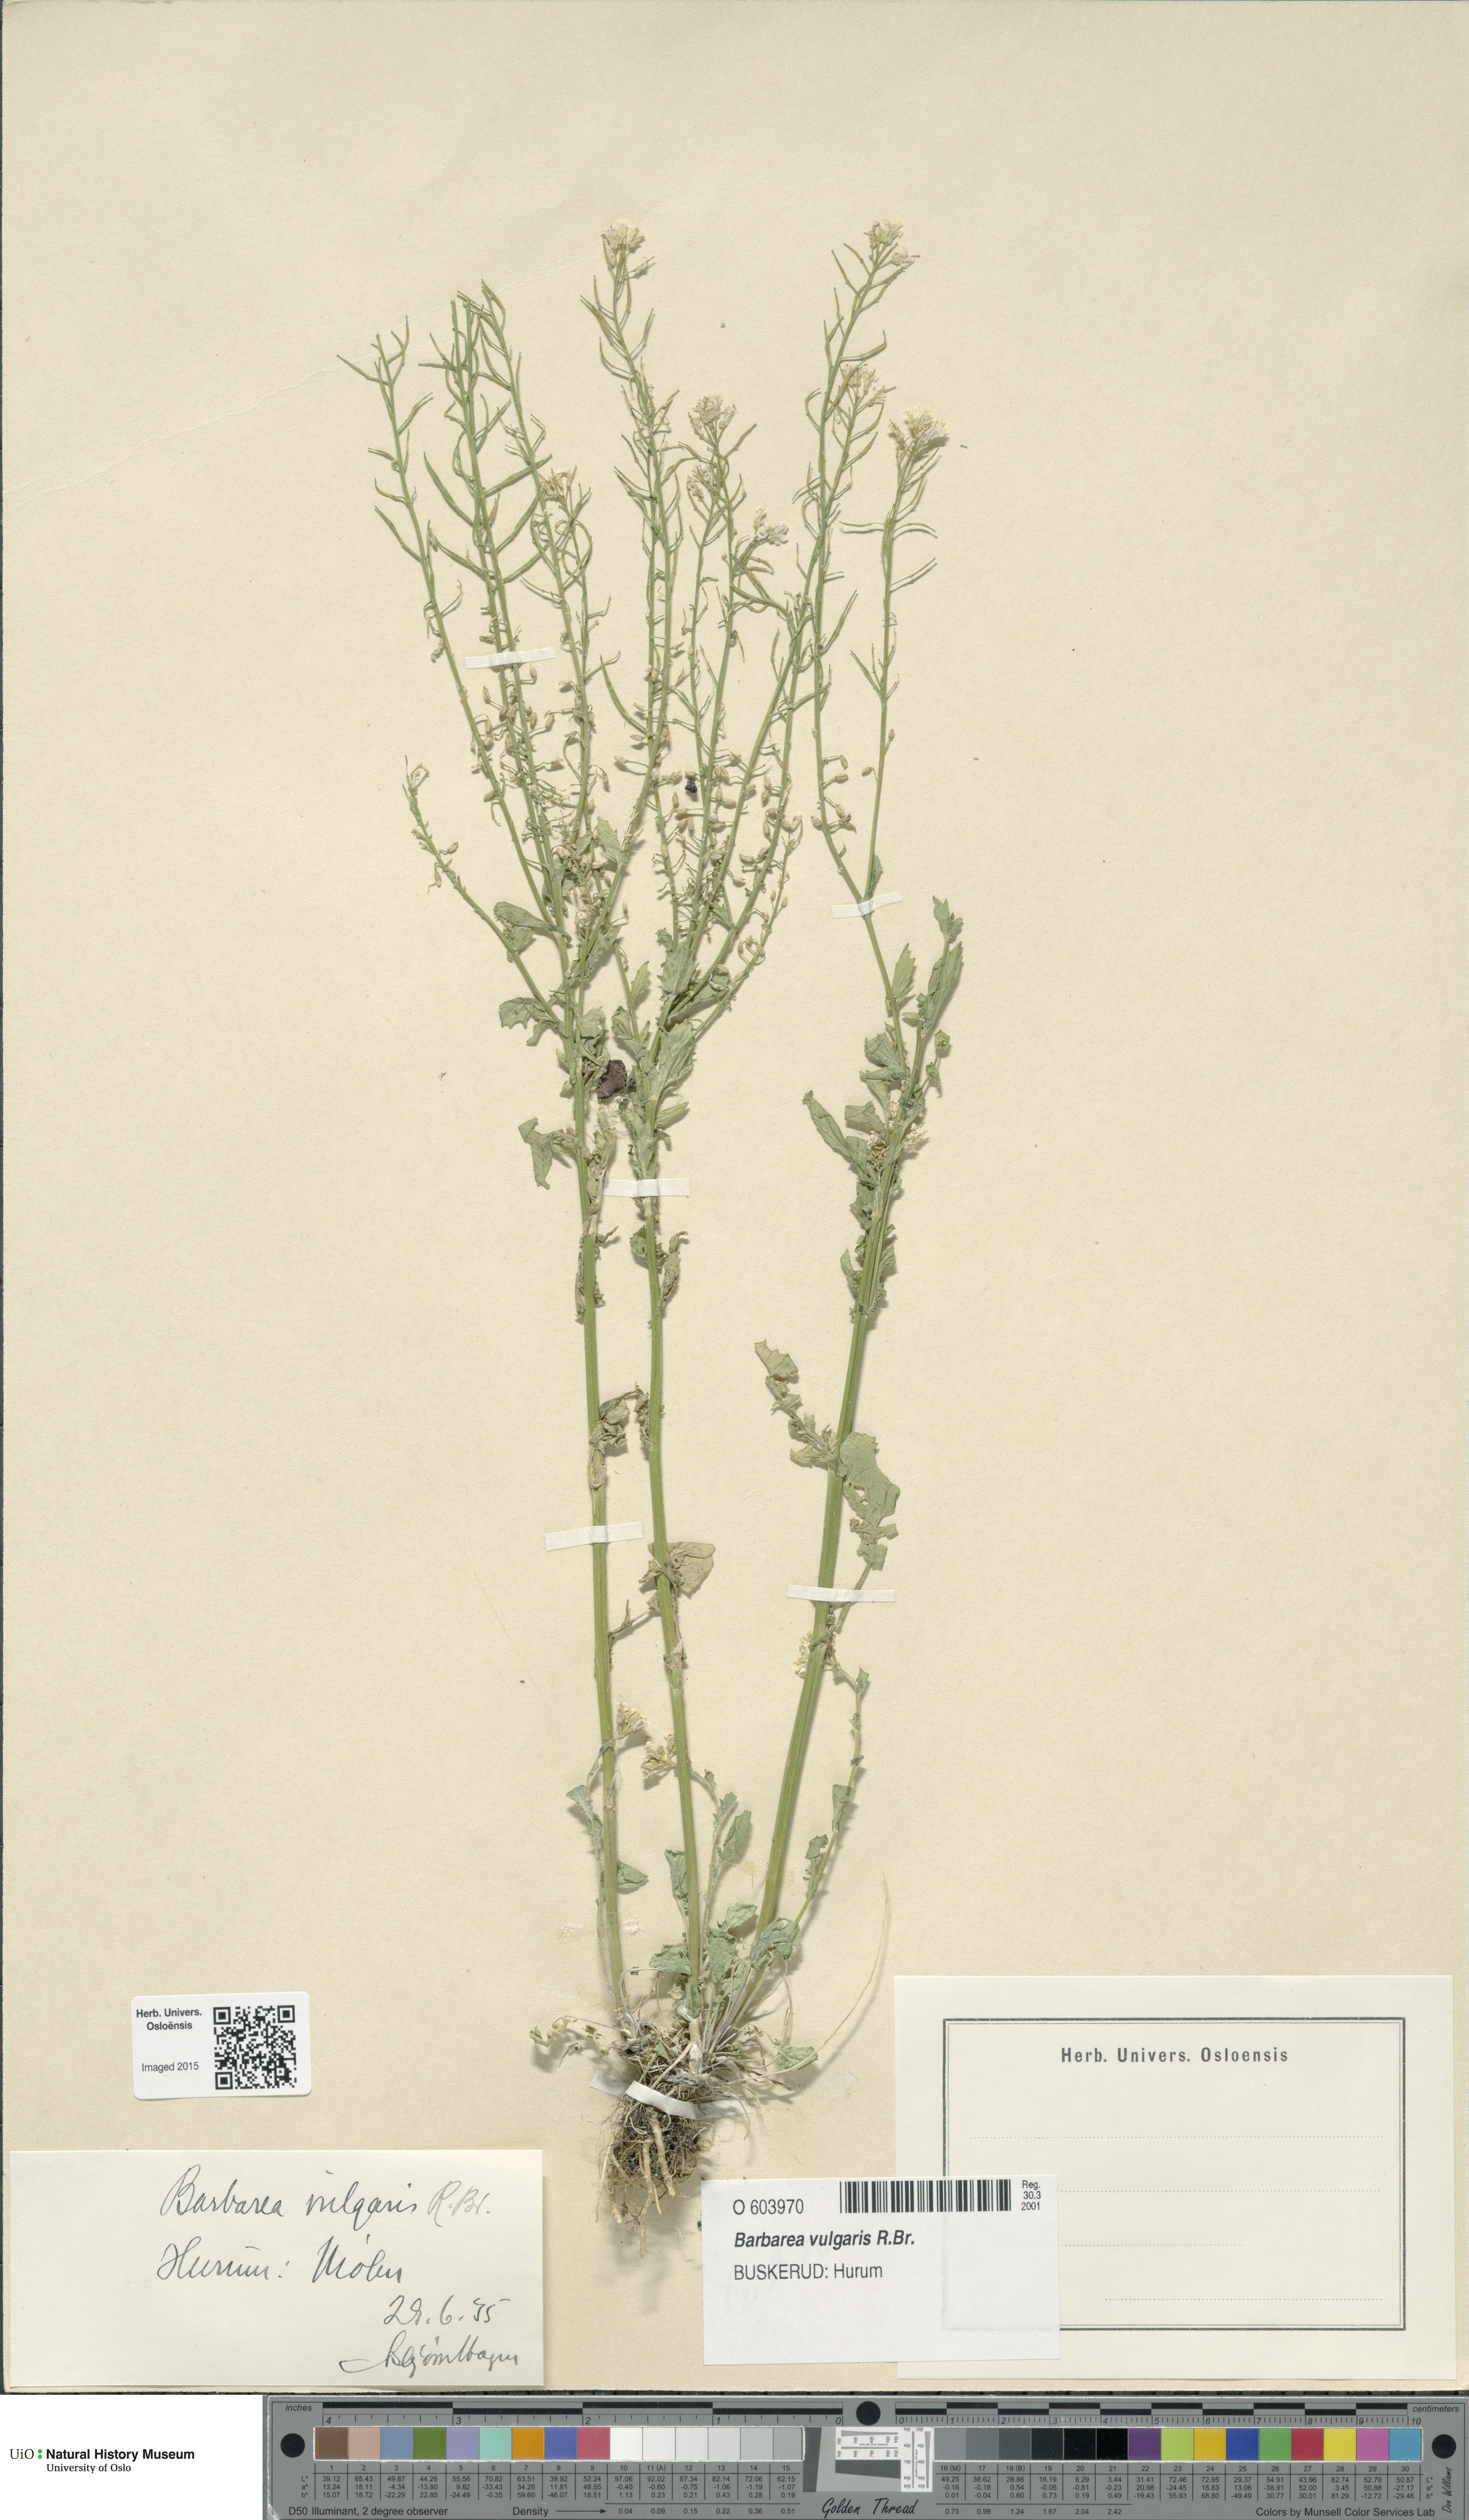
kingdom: Plantae
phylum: Tracheophyta
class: Magnoliopsida
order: Brassicales
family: Brassicaceae
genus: Barbarea
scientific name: Barbarea vulgaris
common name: Cressy-greens
